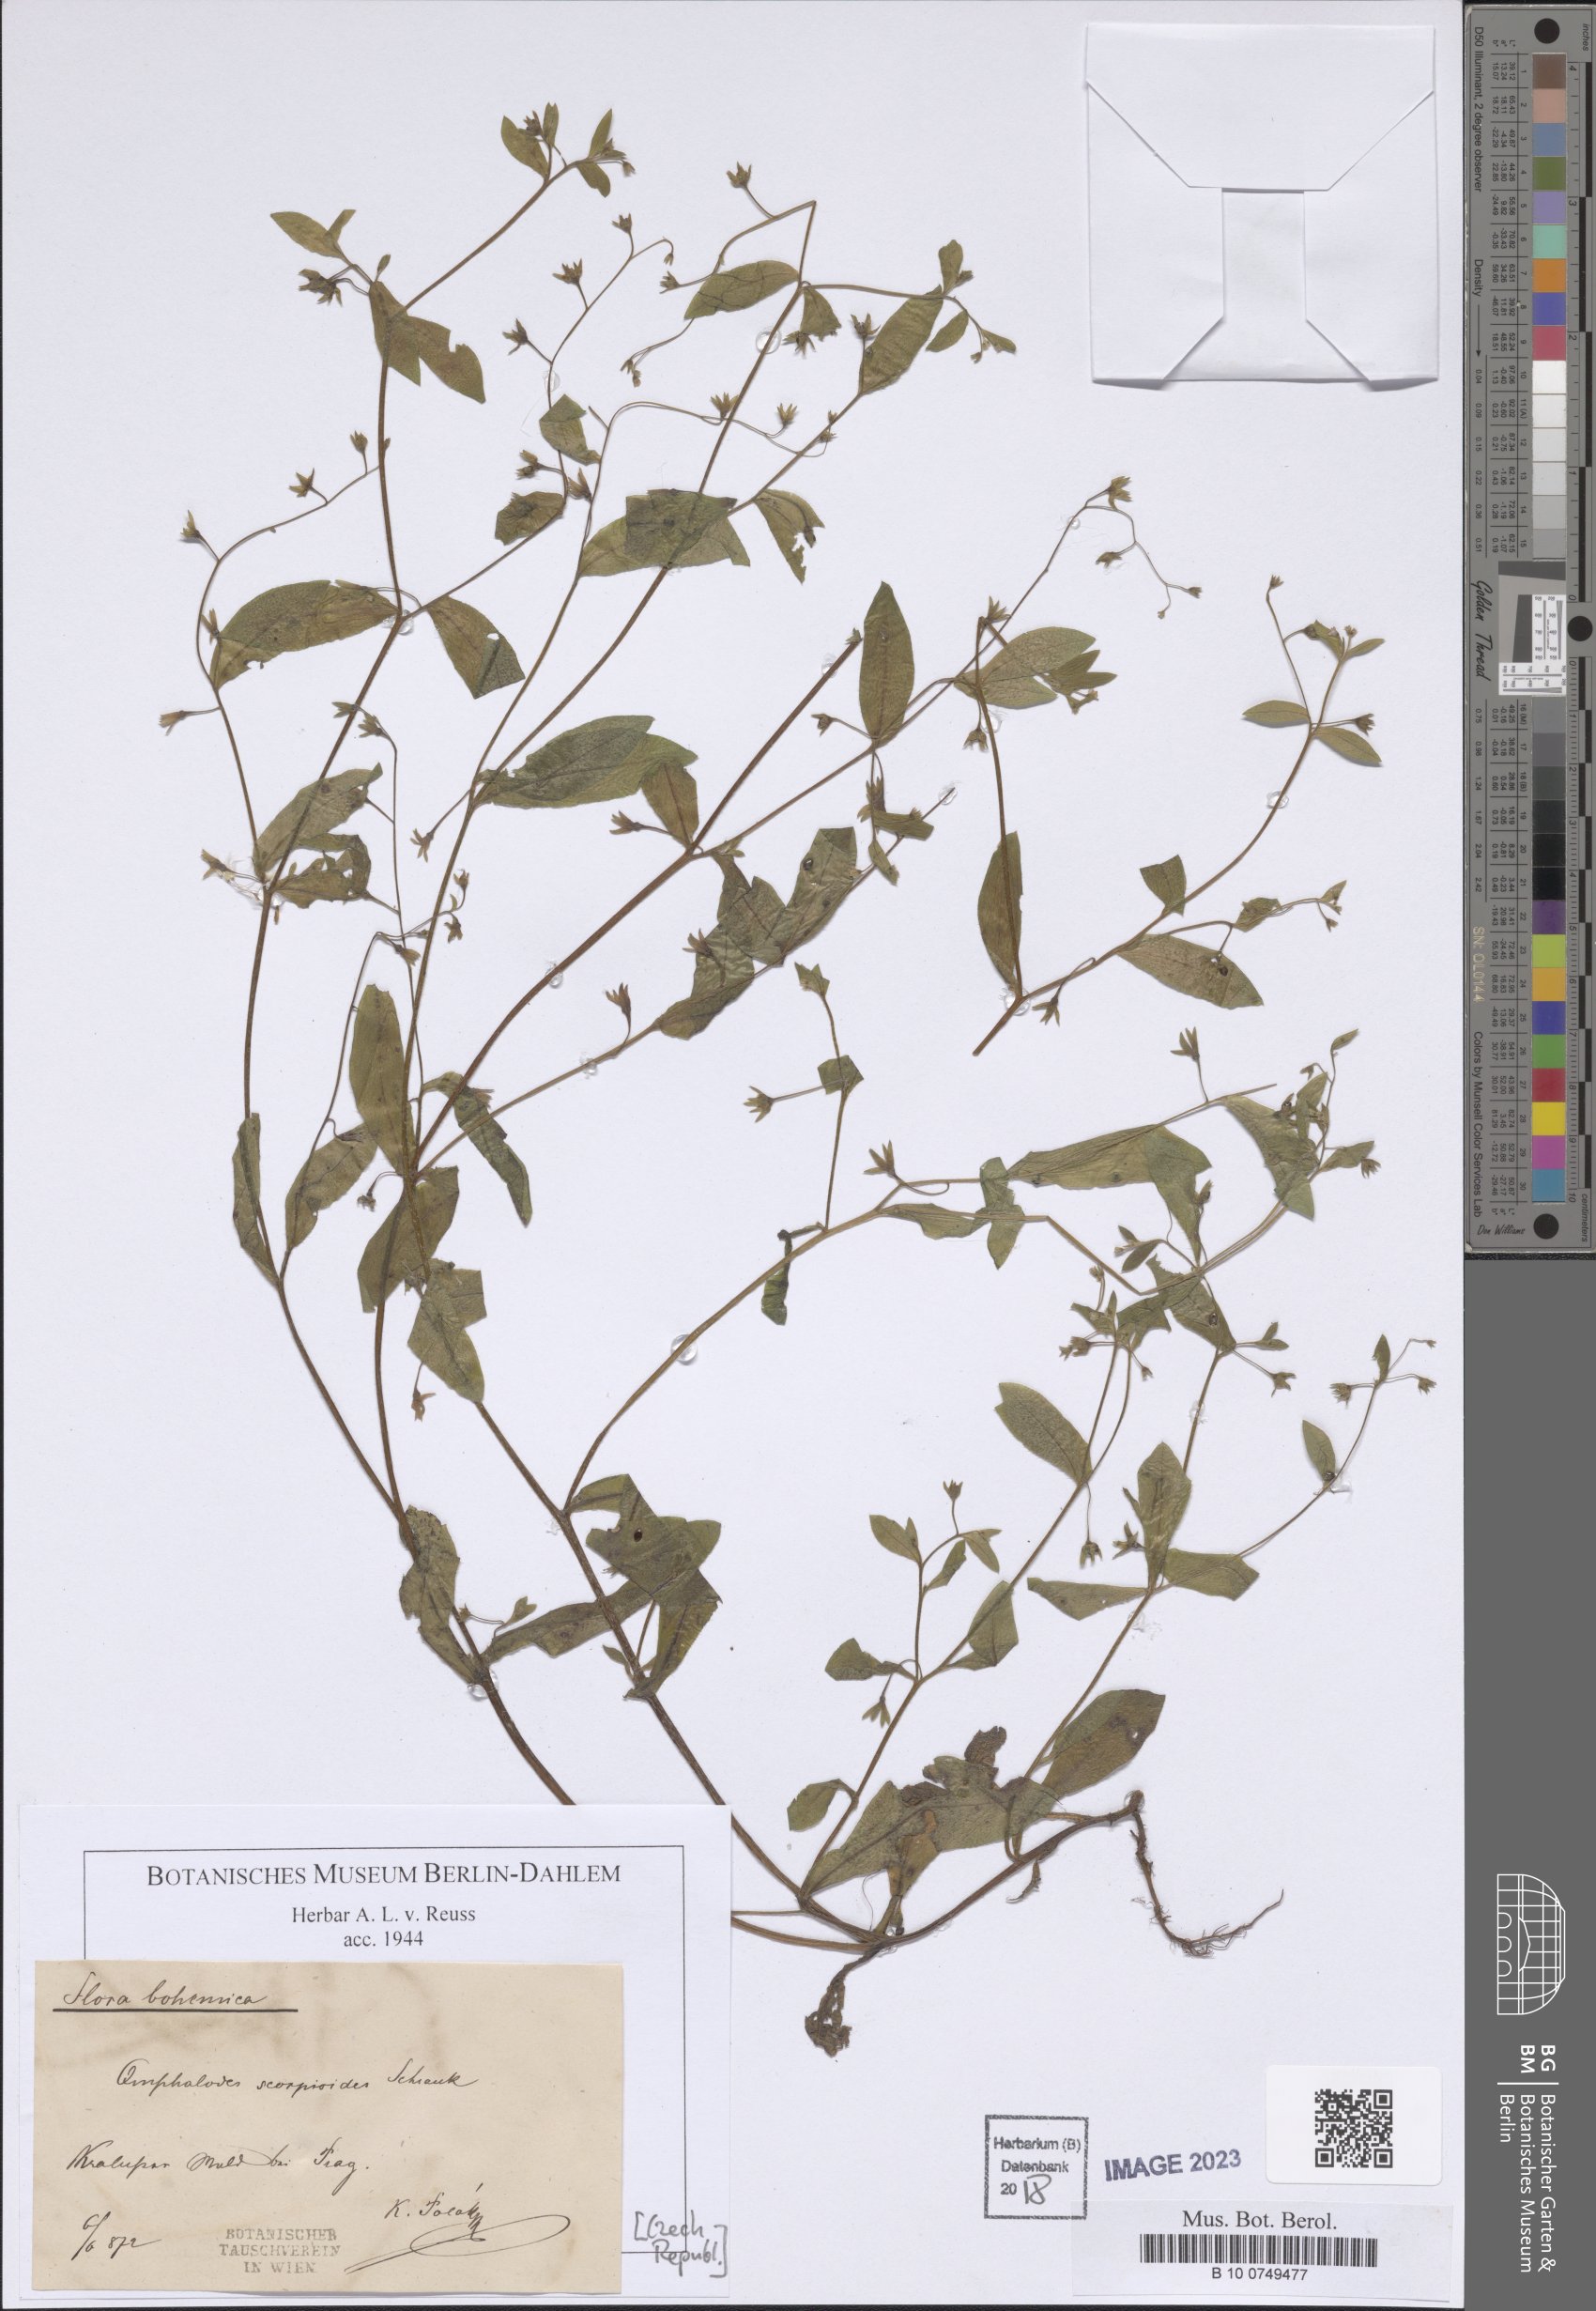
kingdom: Plantae
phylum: Tracheophyta
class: Magnoliopsida
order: Boraginales
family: Boraginaceae
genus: Memoremea
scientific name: Memoremea scorpioides
